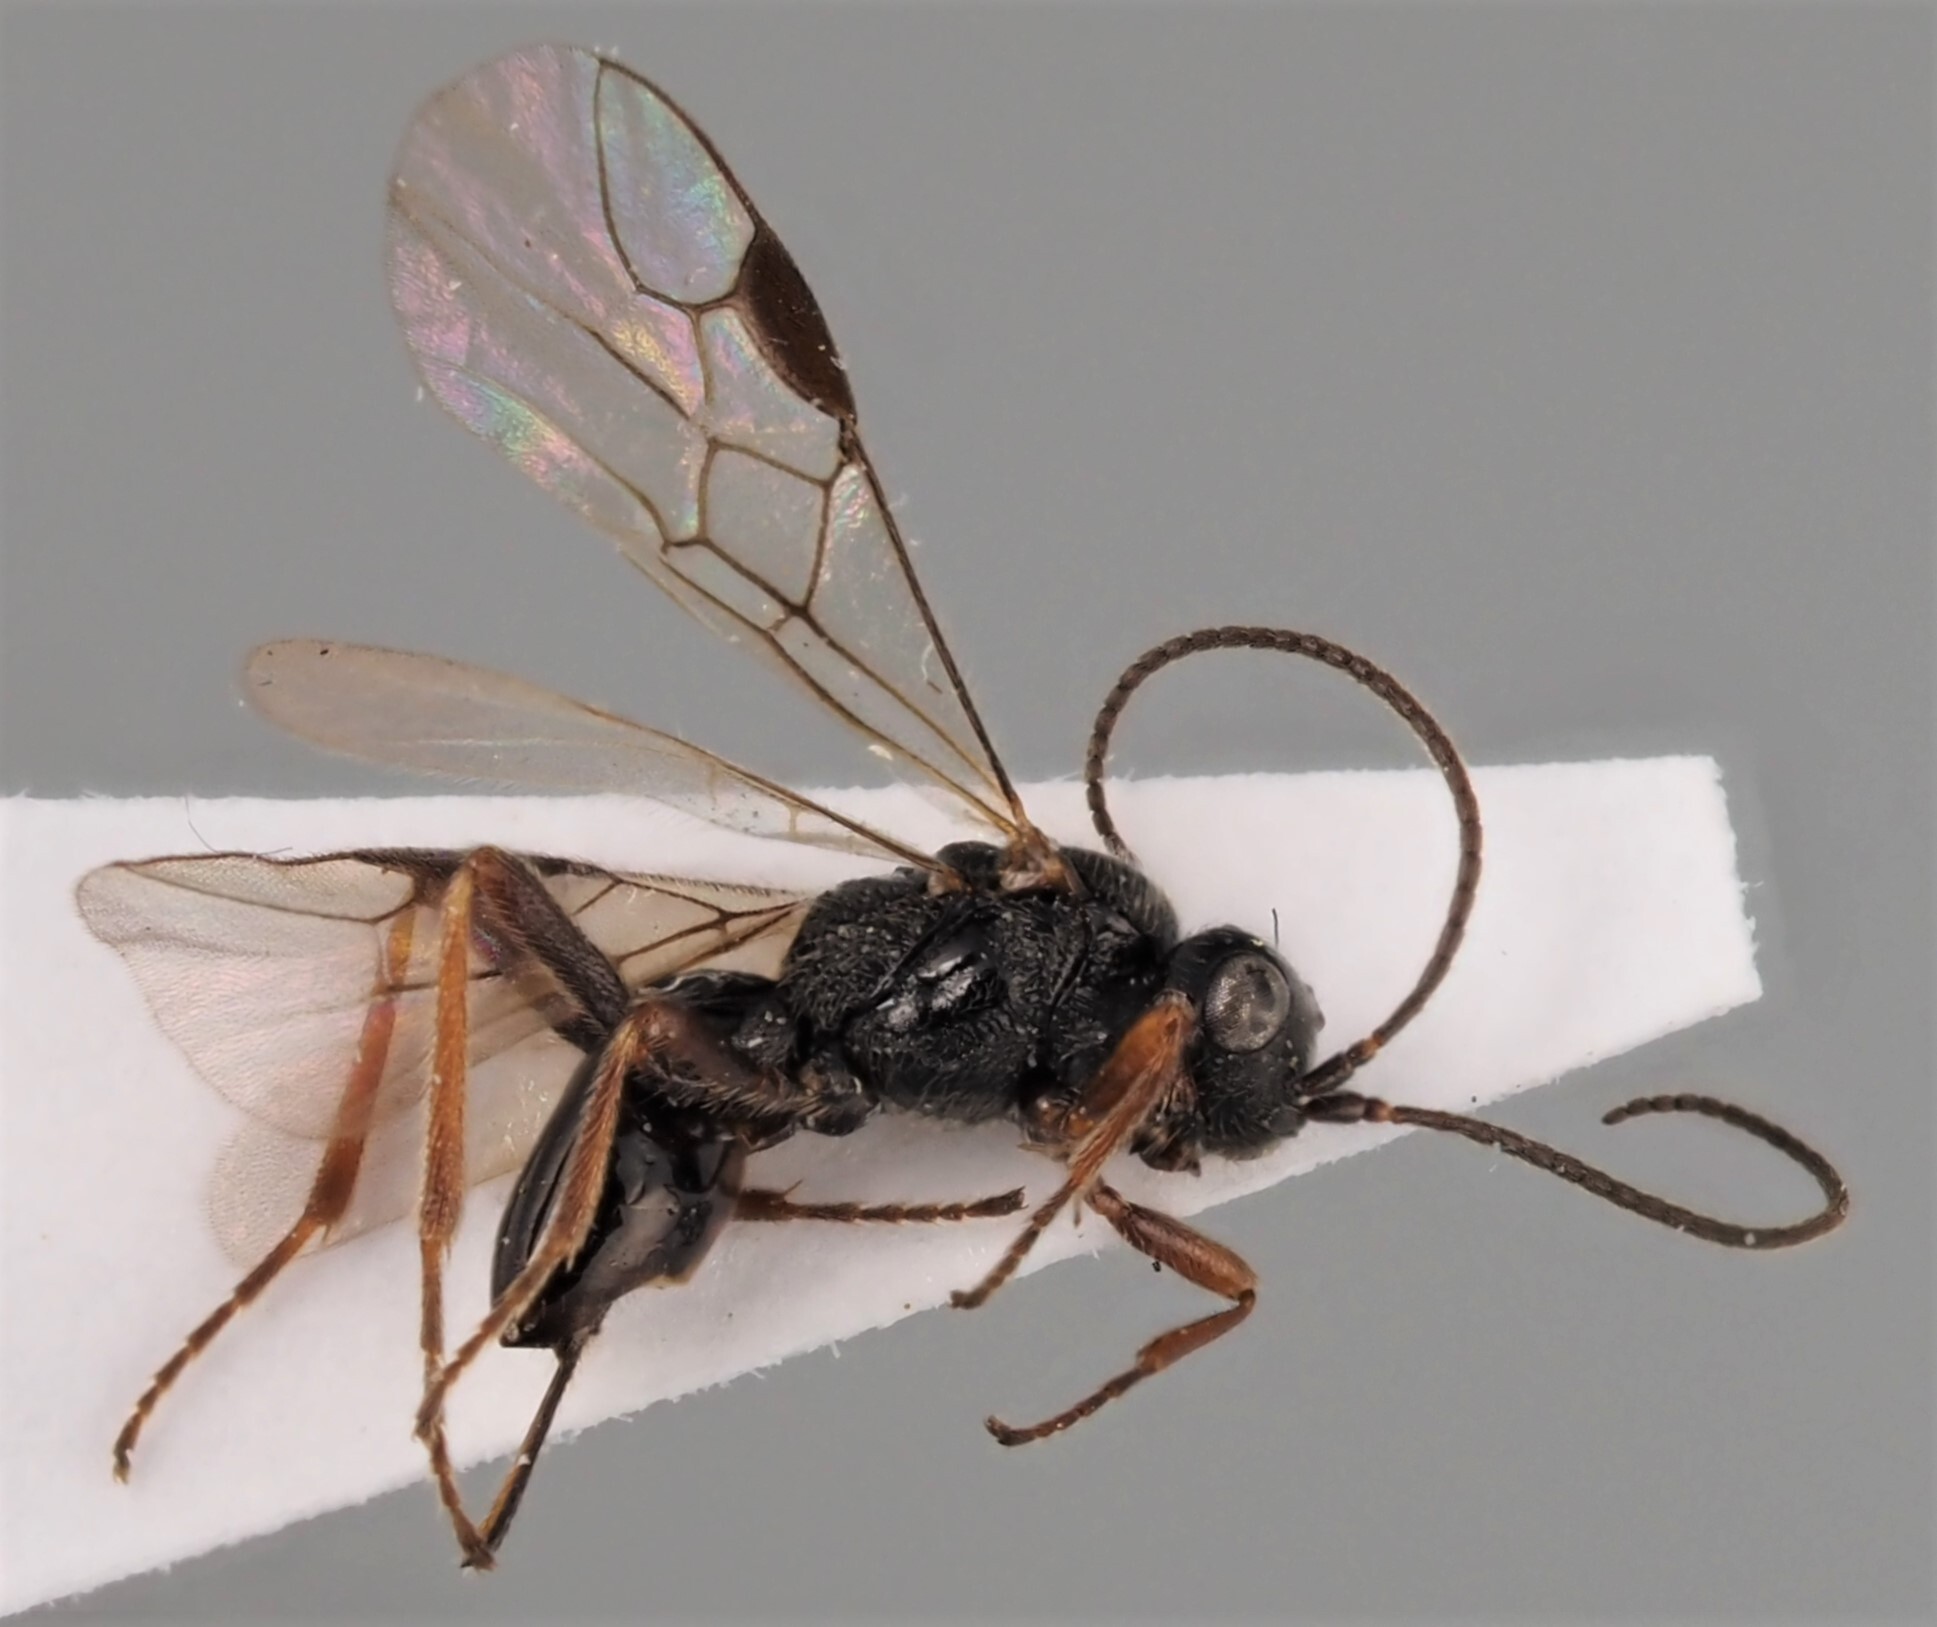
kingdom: Animalia
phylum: Arthropoda
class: Insecta
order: Hymenoptera
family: Braconidae
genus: Alysia
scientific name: Alysia subproia
